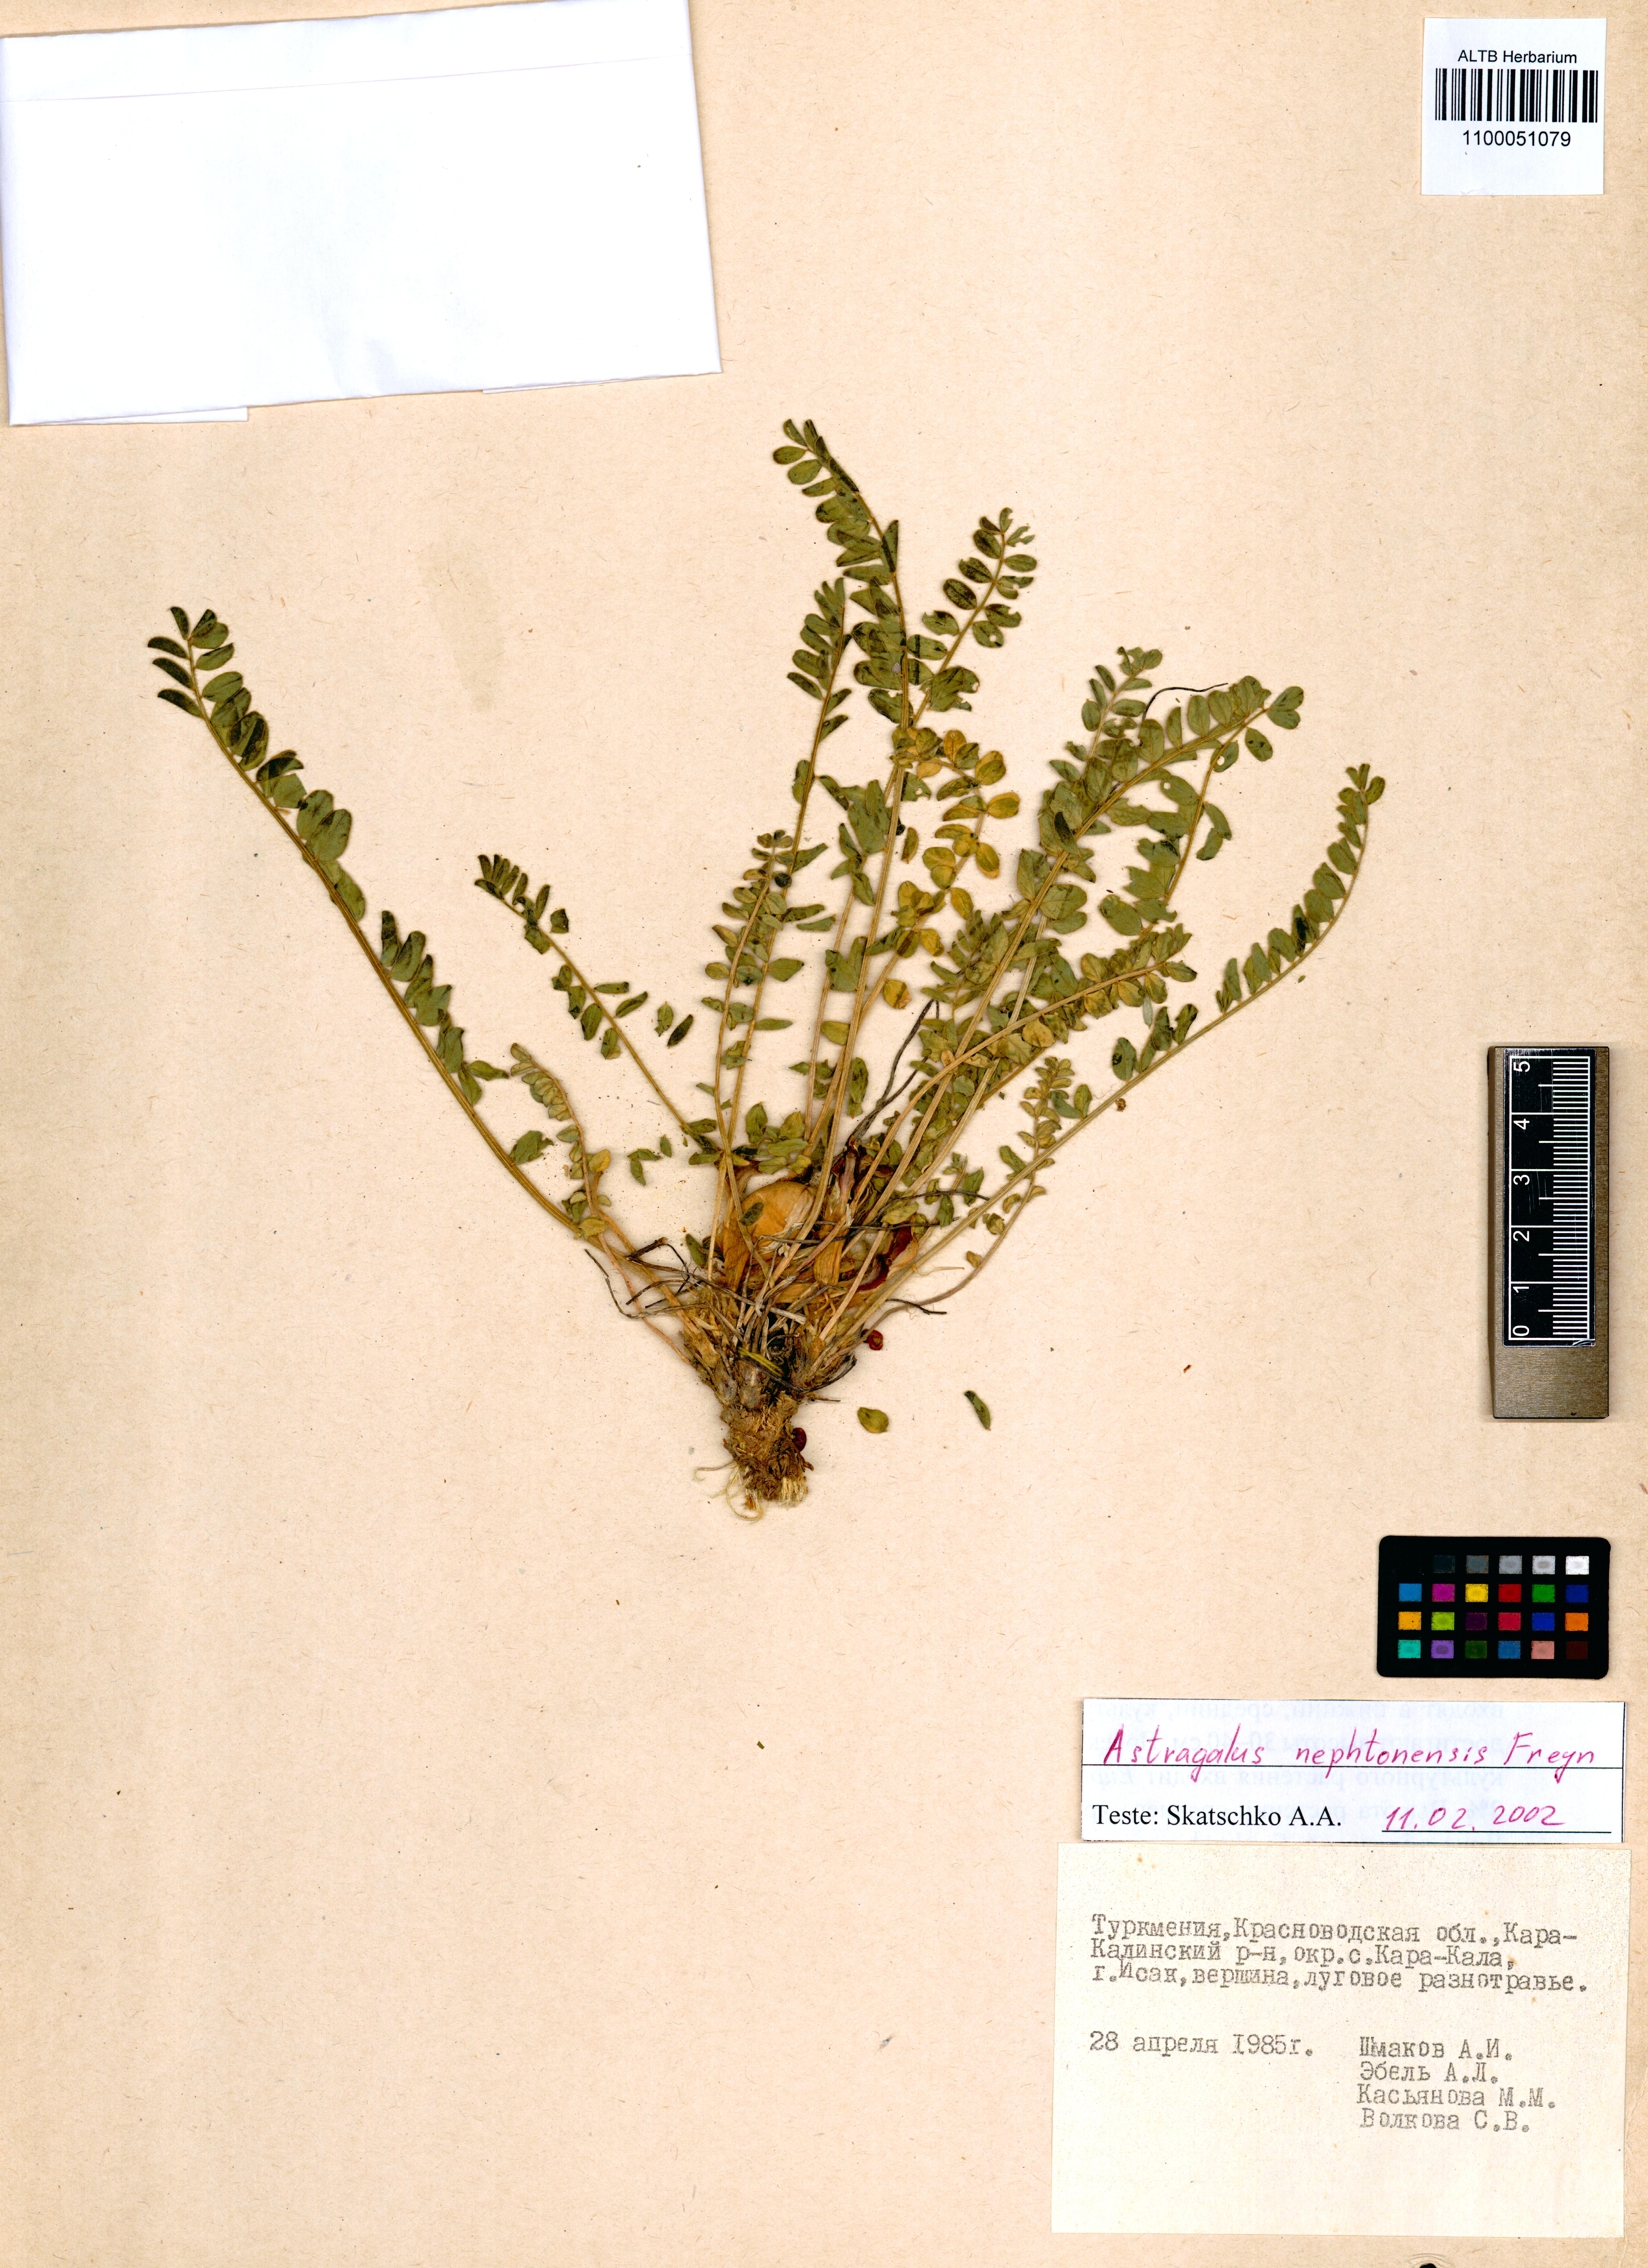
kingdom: Plantae
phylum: Tracheophyta
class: Magnoliopsida
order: Fabales
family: Fabaceae
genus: Astragalus
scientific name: Astragalus nephtonensis
